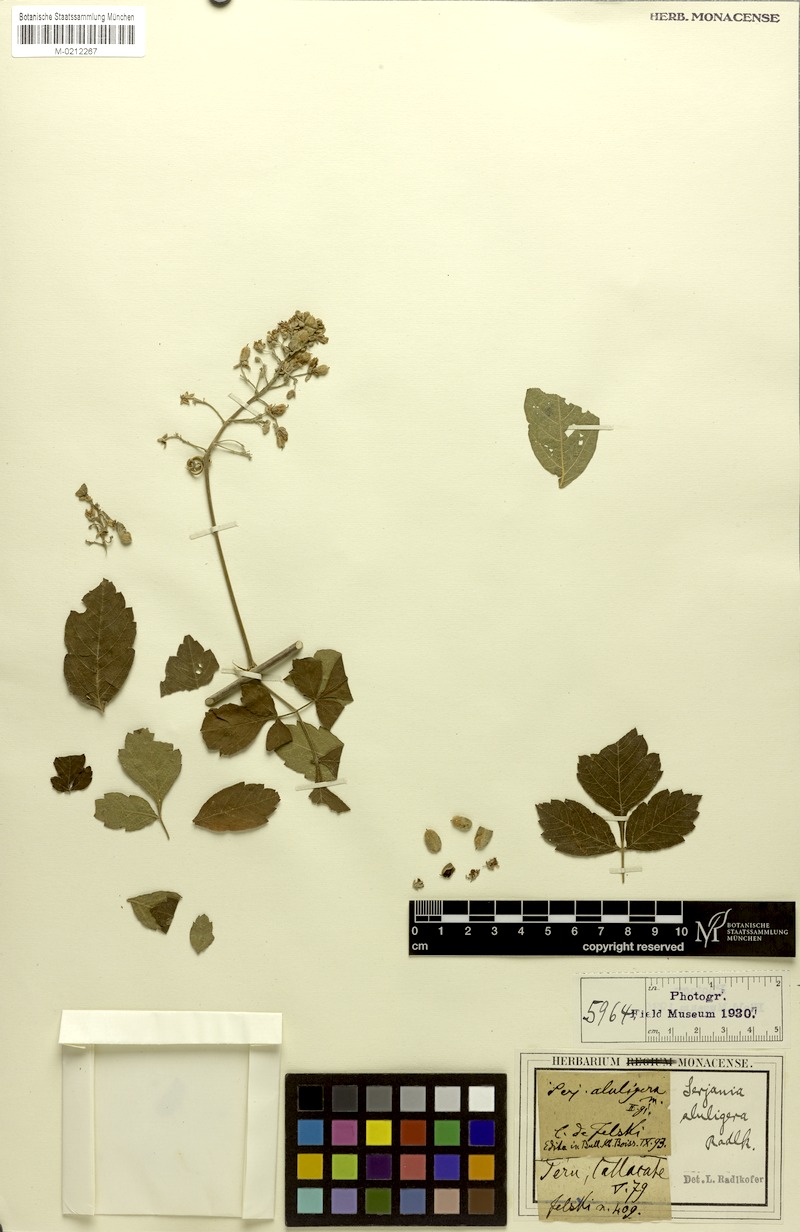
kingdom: Plantae
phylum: Tracheophyta
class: Magnoliopsida
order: Sapindales
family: Sapindaceae
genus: Serjania
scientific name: Serjania aluligera
